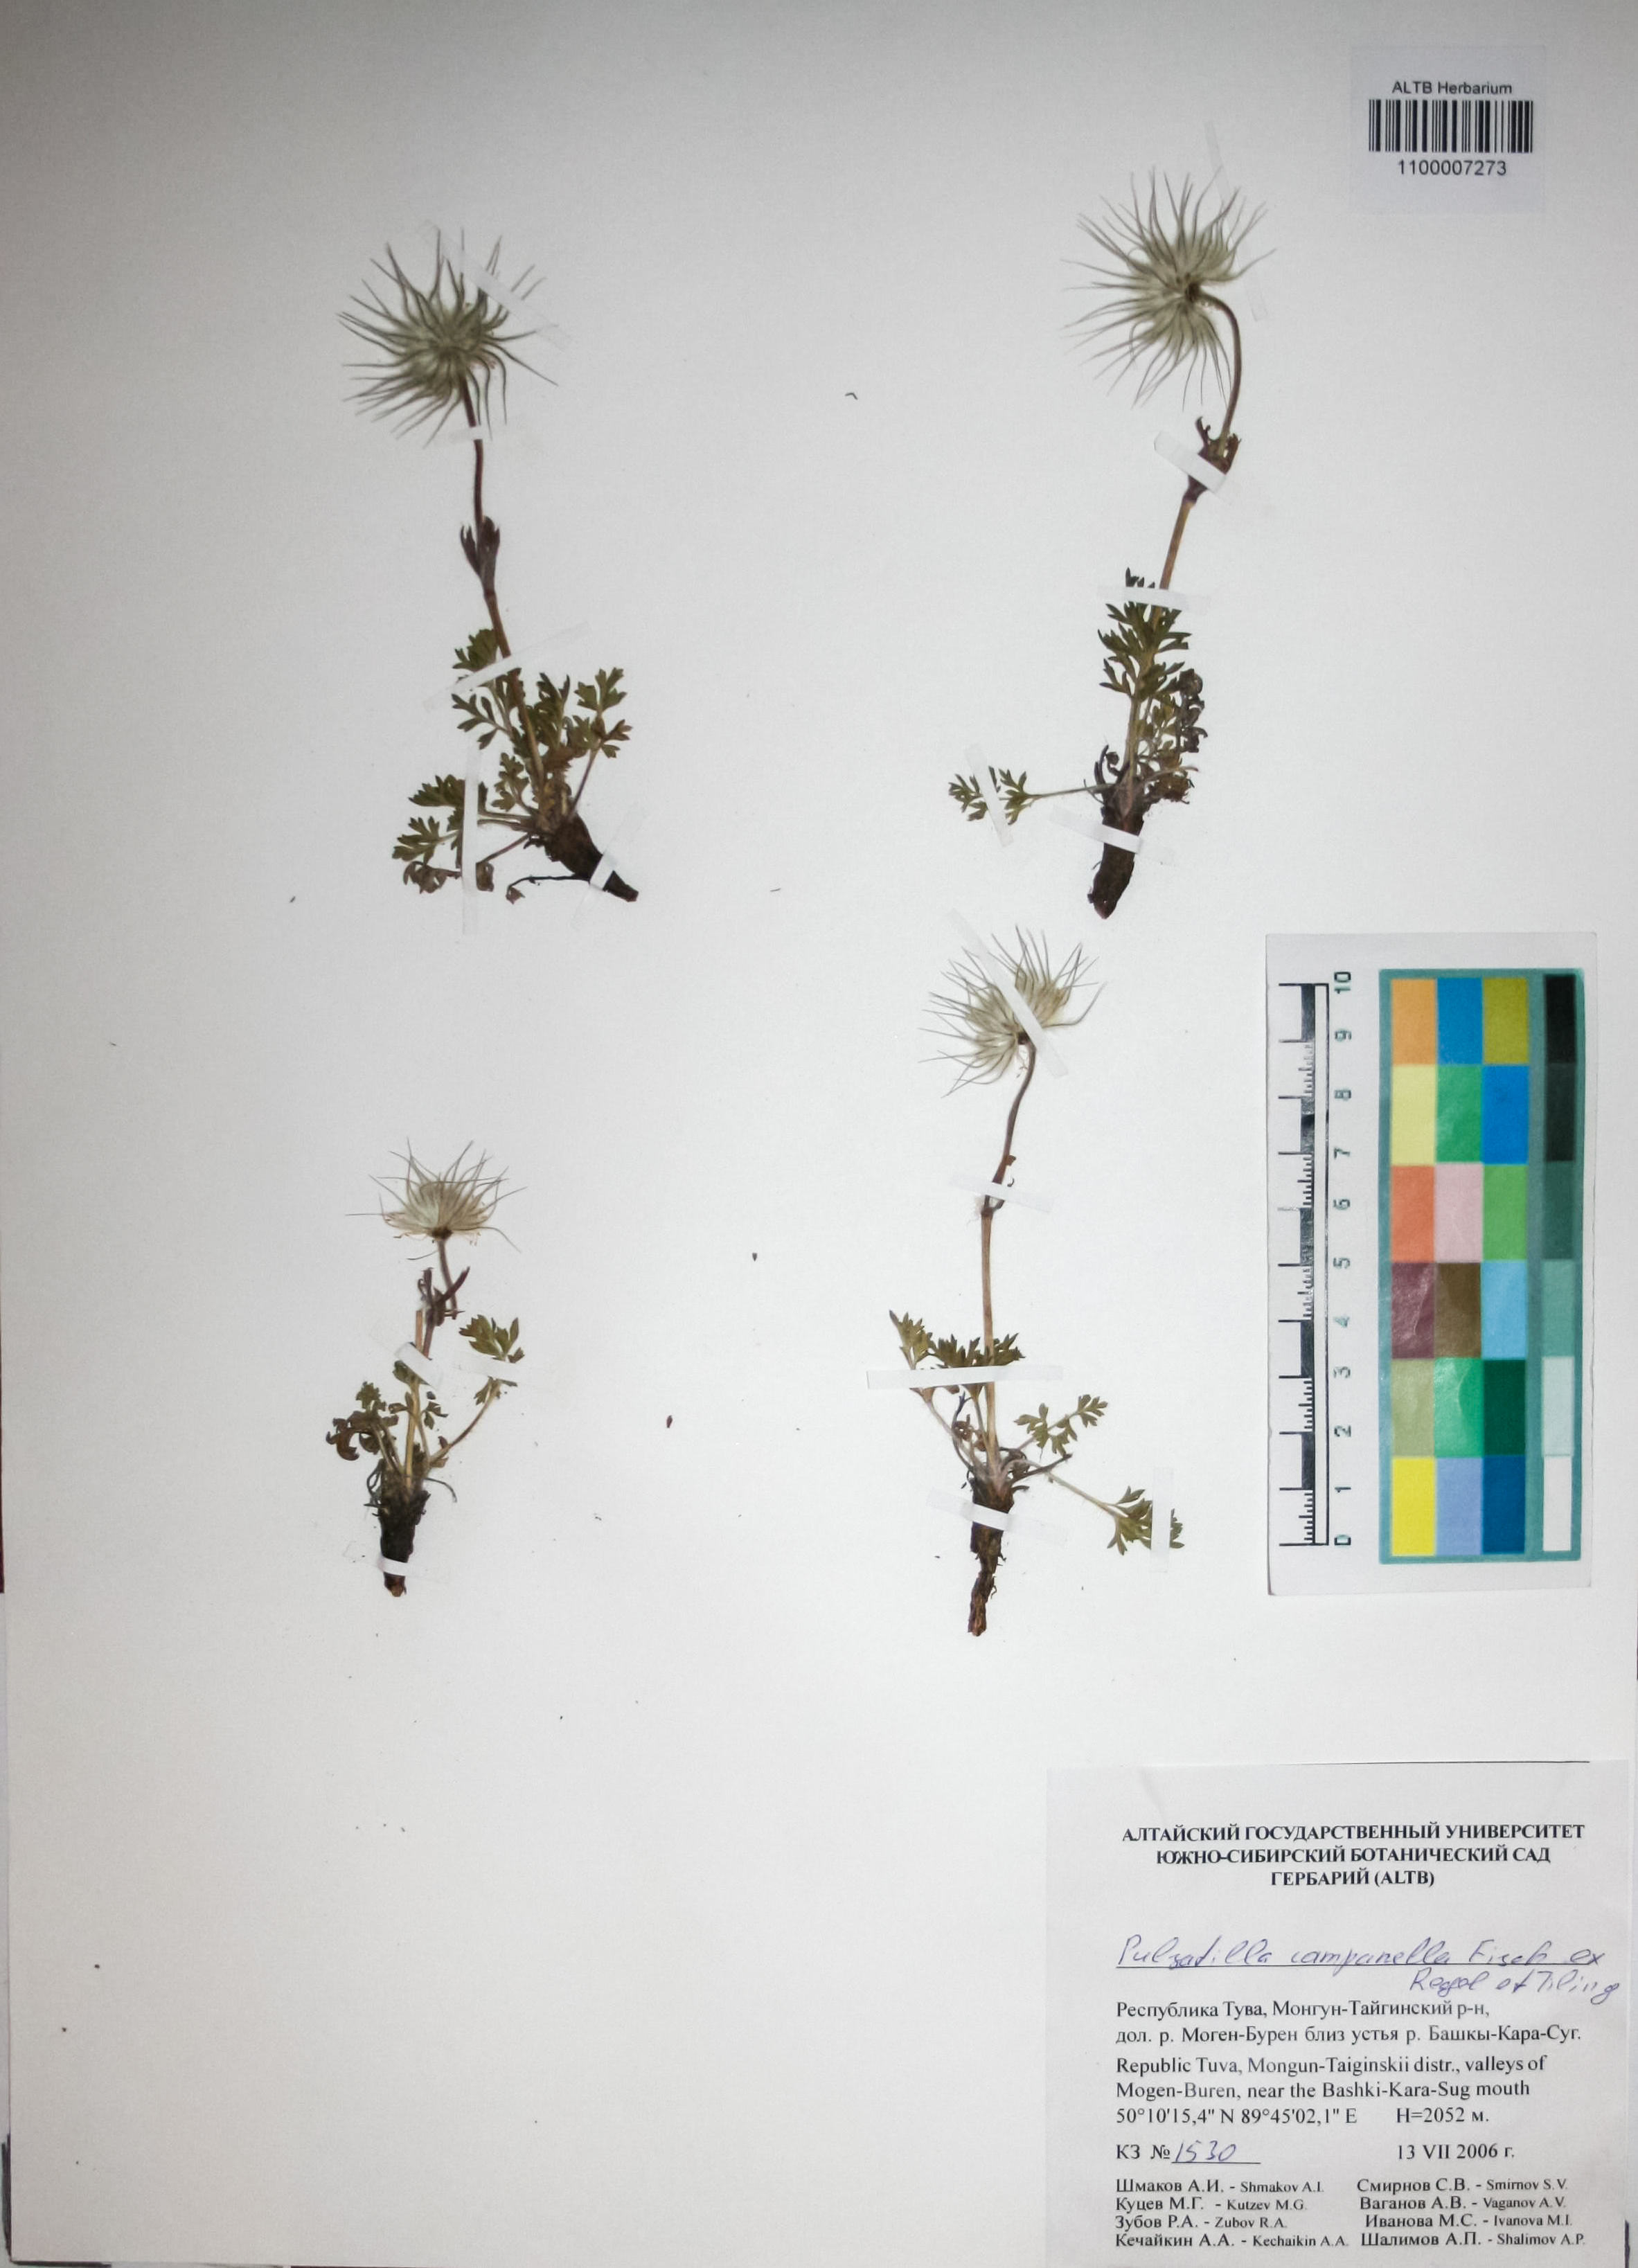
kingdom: Plantae
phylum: Tracheophyta
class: Magnoliopsida
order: Ranunculales
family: Ranunculaceae
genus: Pulsatilla
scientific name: Pulsatilla campanella
